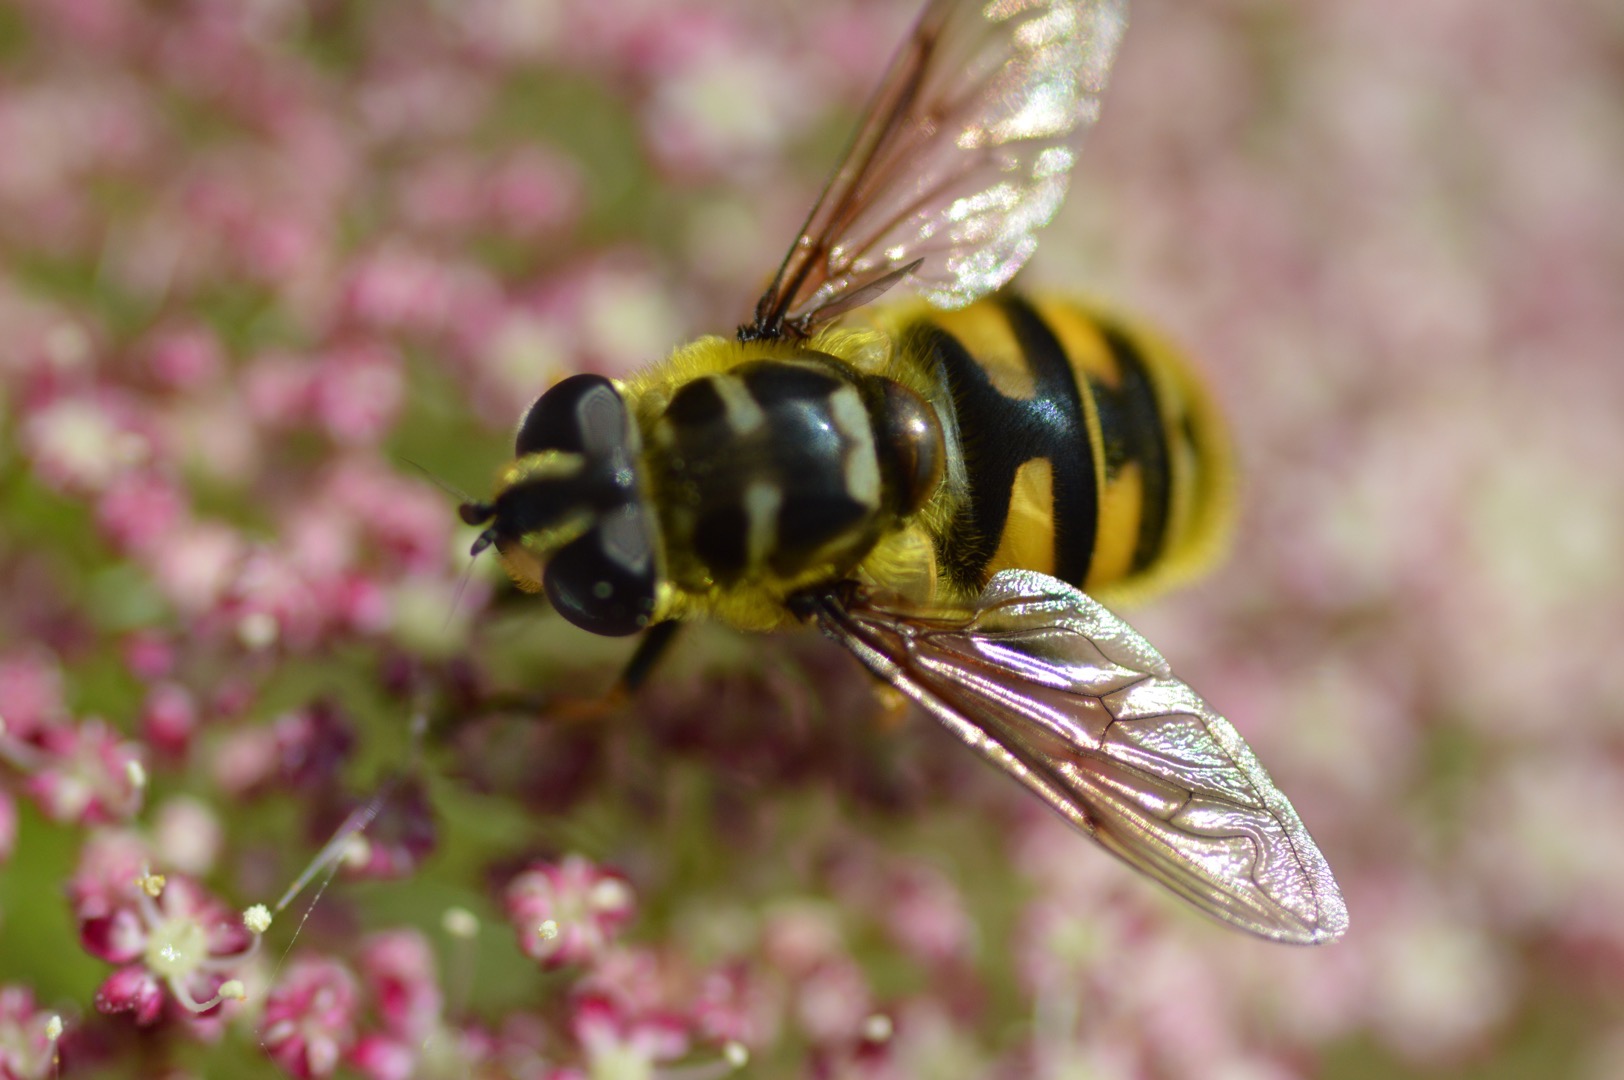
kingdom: Animalia
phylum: Arthropoda
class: Insecta
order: Diptera
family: Syrphidae
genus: Myathropa
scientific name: Myathropa florea
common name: Dødningehoved-svirreflue
